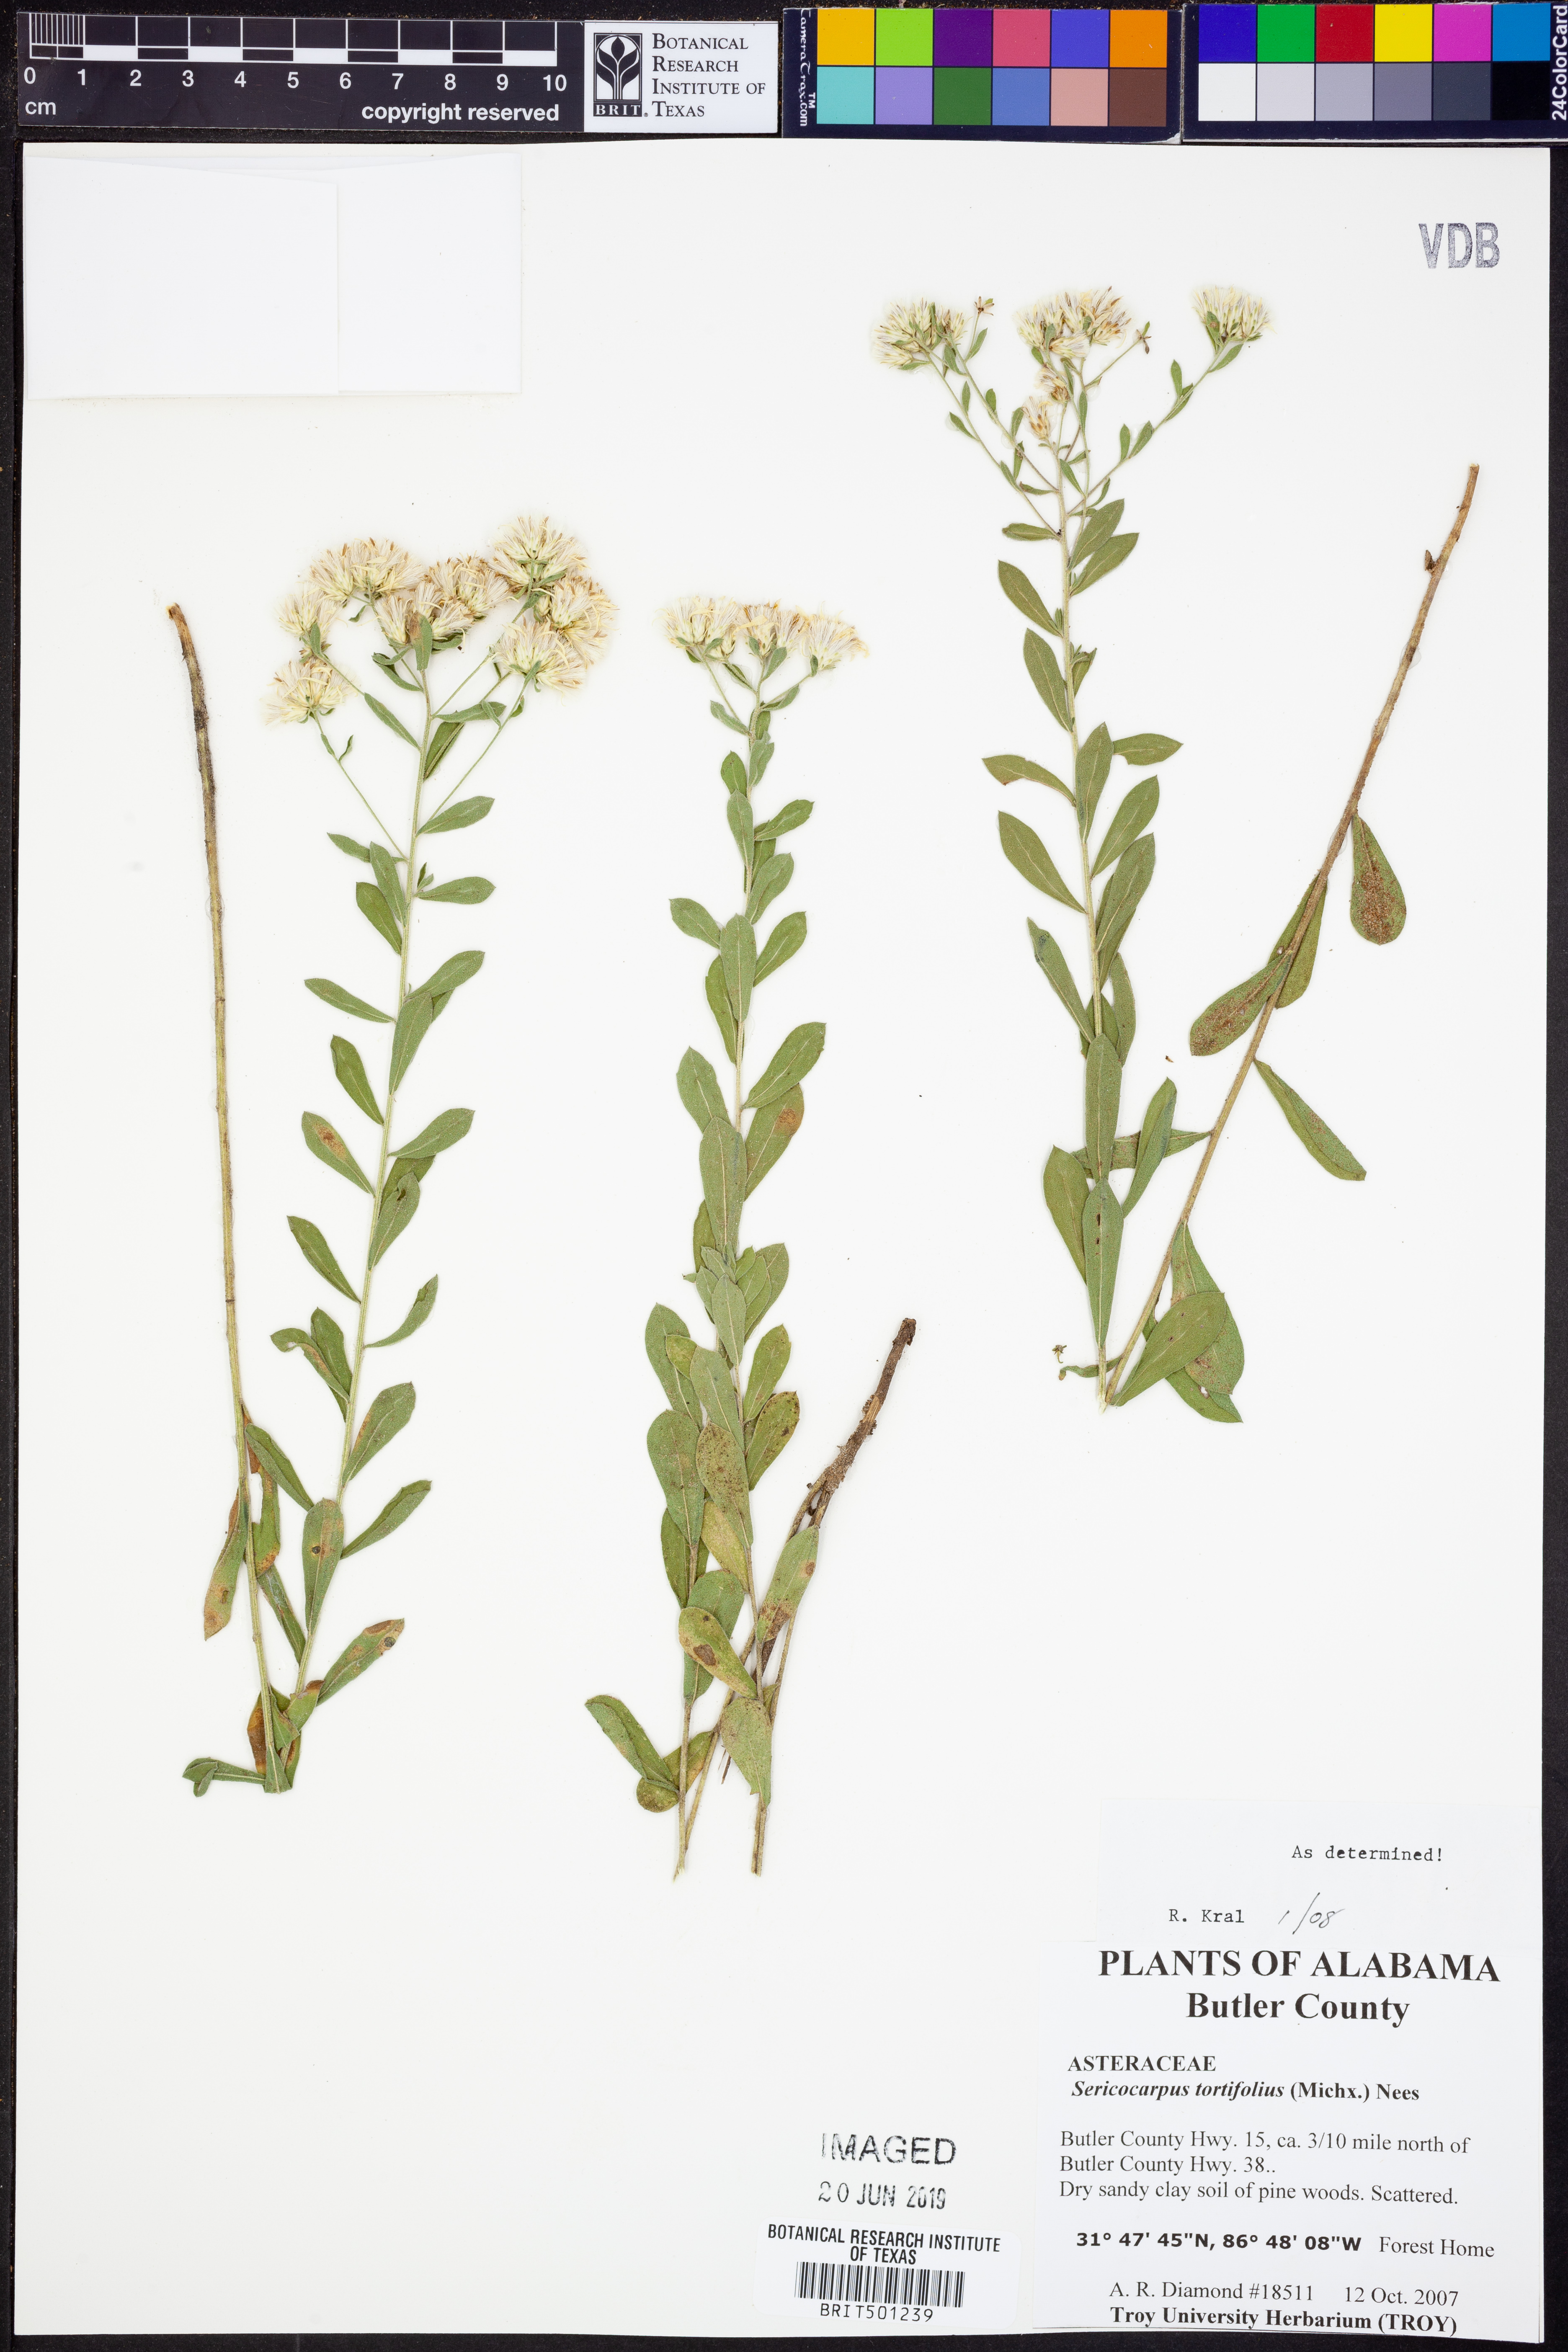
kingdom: Plantae
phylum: Tracheophyta
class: Magnoliopsida
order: Asterales
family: Asteraceae
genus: Sericocarpus
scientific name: Sericocarpus tortifolius
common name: Dixie aster
